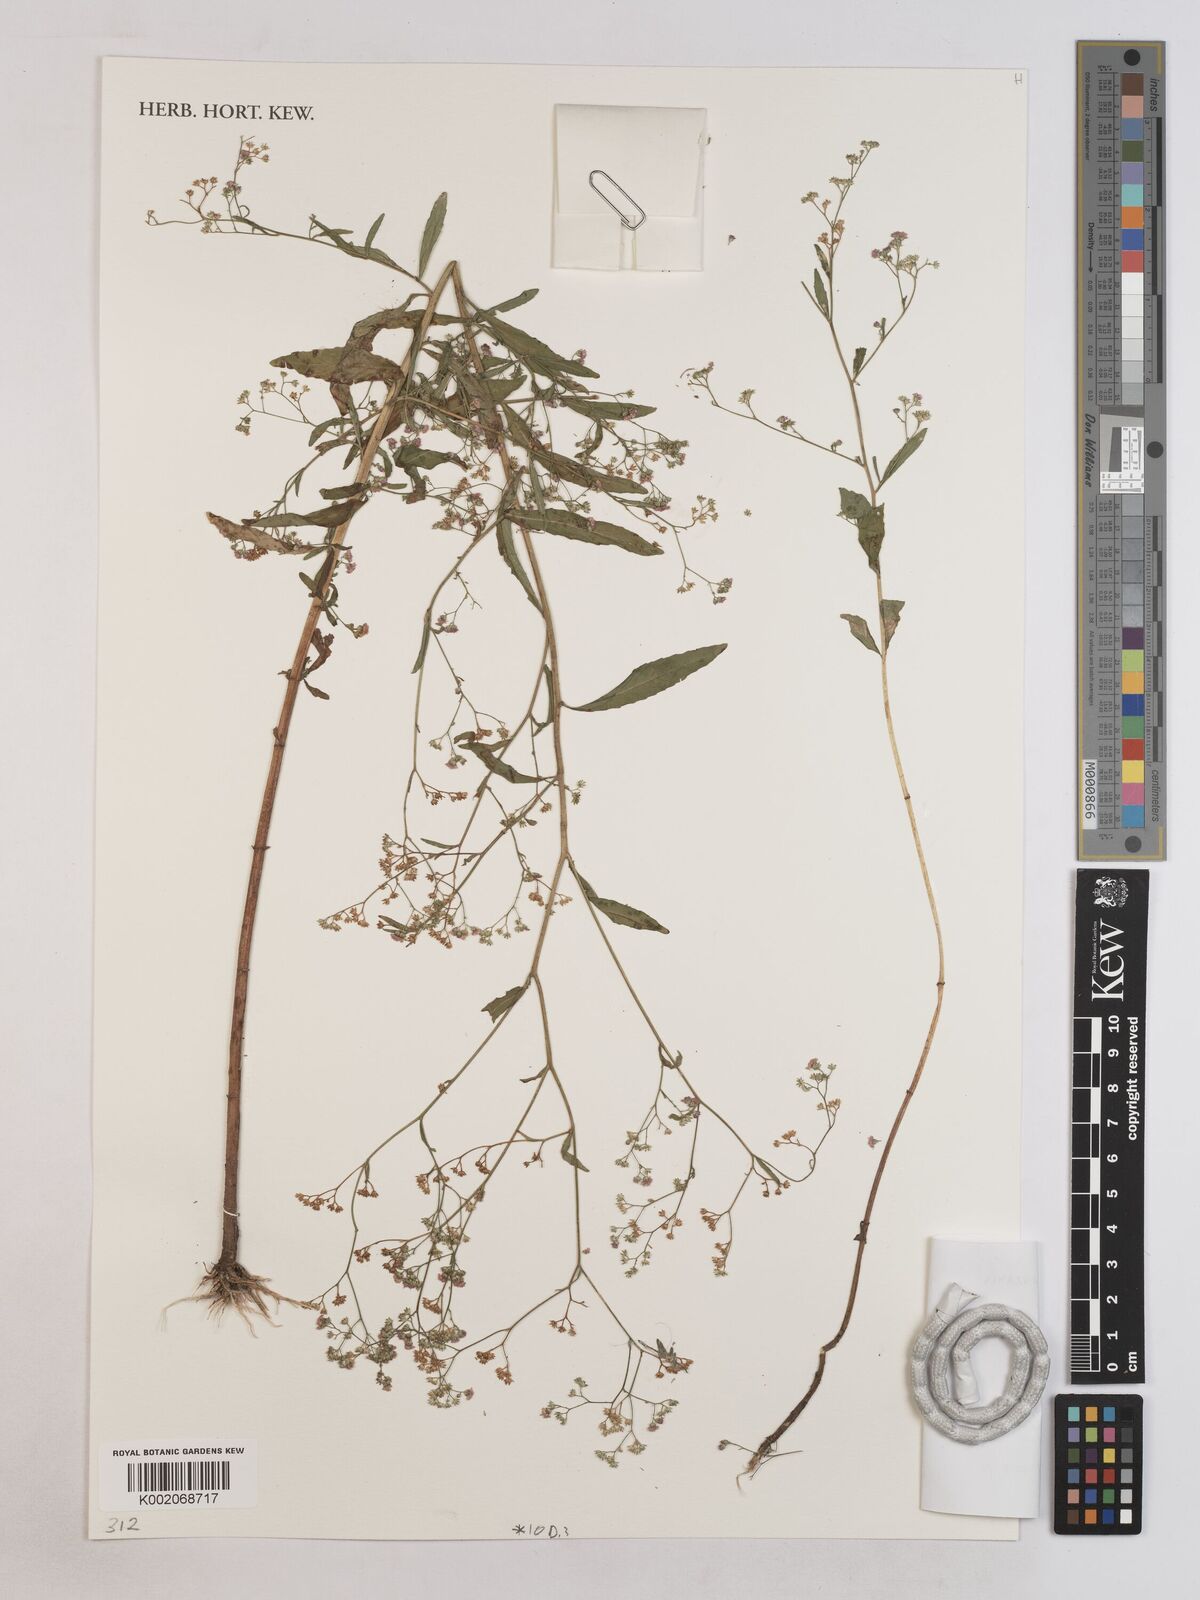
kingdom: Plantae
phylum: Tracheophyta
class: Magnoliopsida
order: Asterales
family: Asteraceae
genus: Ethulia
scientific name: Ethulia conyzoides
